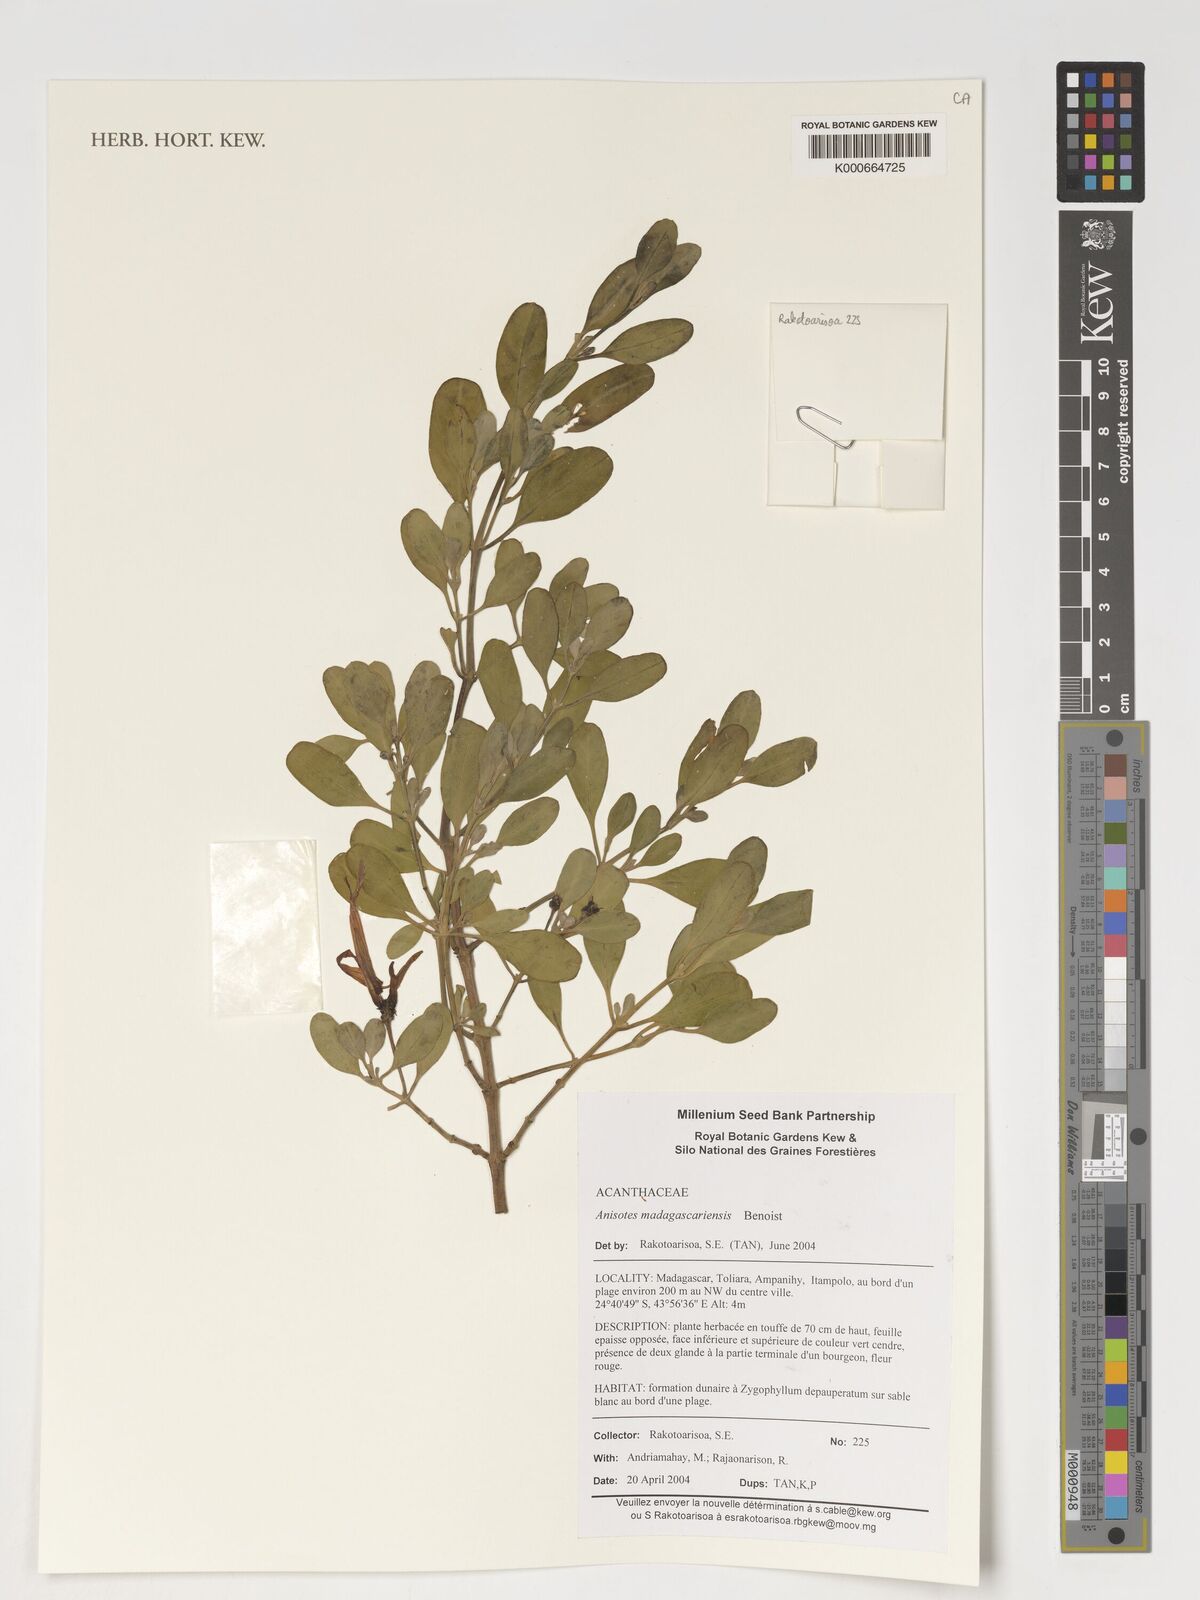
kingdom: Plantae
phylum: Tracheophyta
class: Magnoliopsida
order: Lamiales
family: Acanthaceae
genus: Anisotes
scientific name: Anisotes madagascariensis
